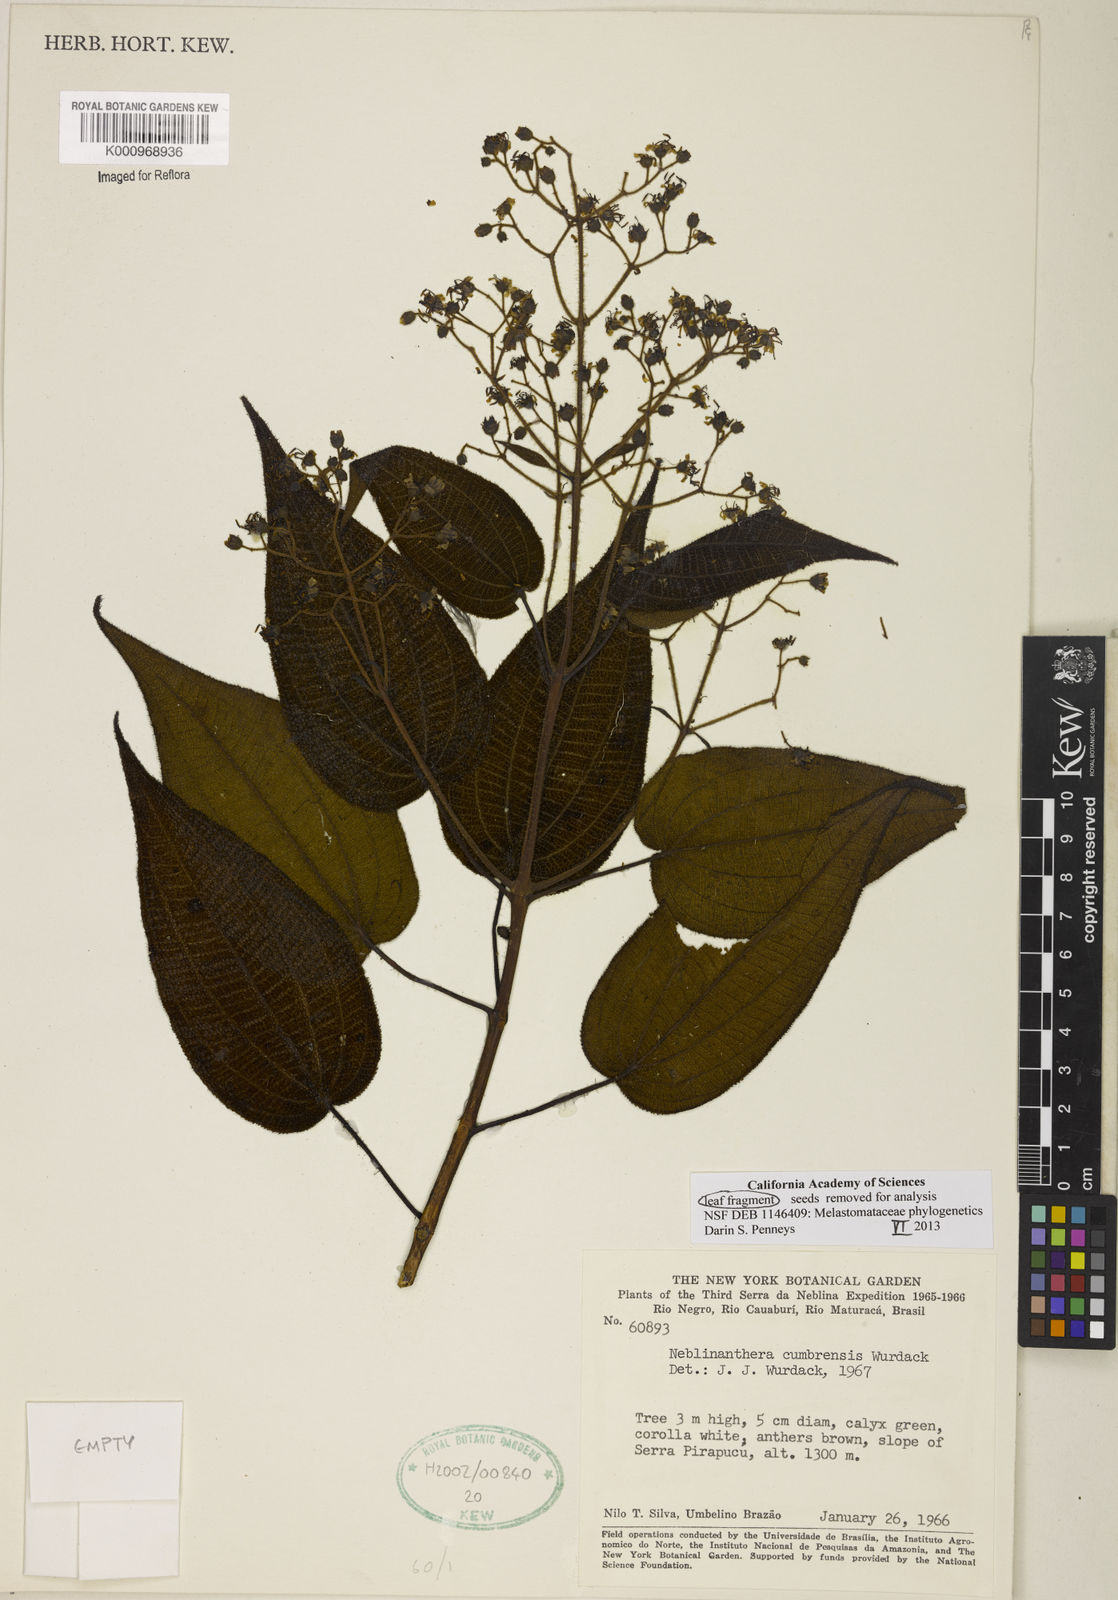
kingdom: Plantae
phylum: Tracheophyta
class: Magnoliopsida
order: Myrtales
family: Melastomataceae
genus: Neblinanthera
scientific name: Neblinanthera cumbrensis
